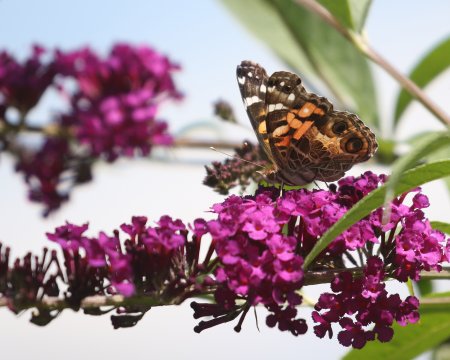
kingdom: Animalia
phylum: Arthropoda
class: Insecta
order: Lepidoptera
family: Nymphalidae
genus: Vanessa
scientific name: Vanessa virginiensis
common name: American Lady
